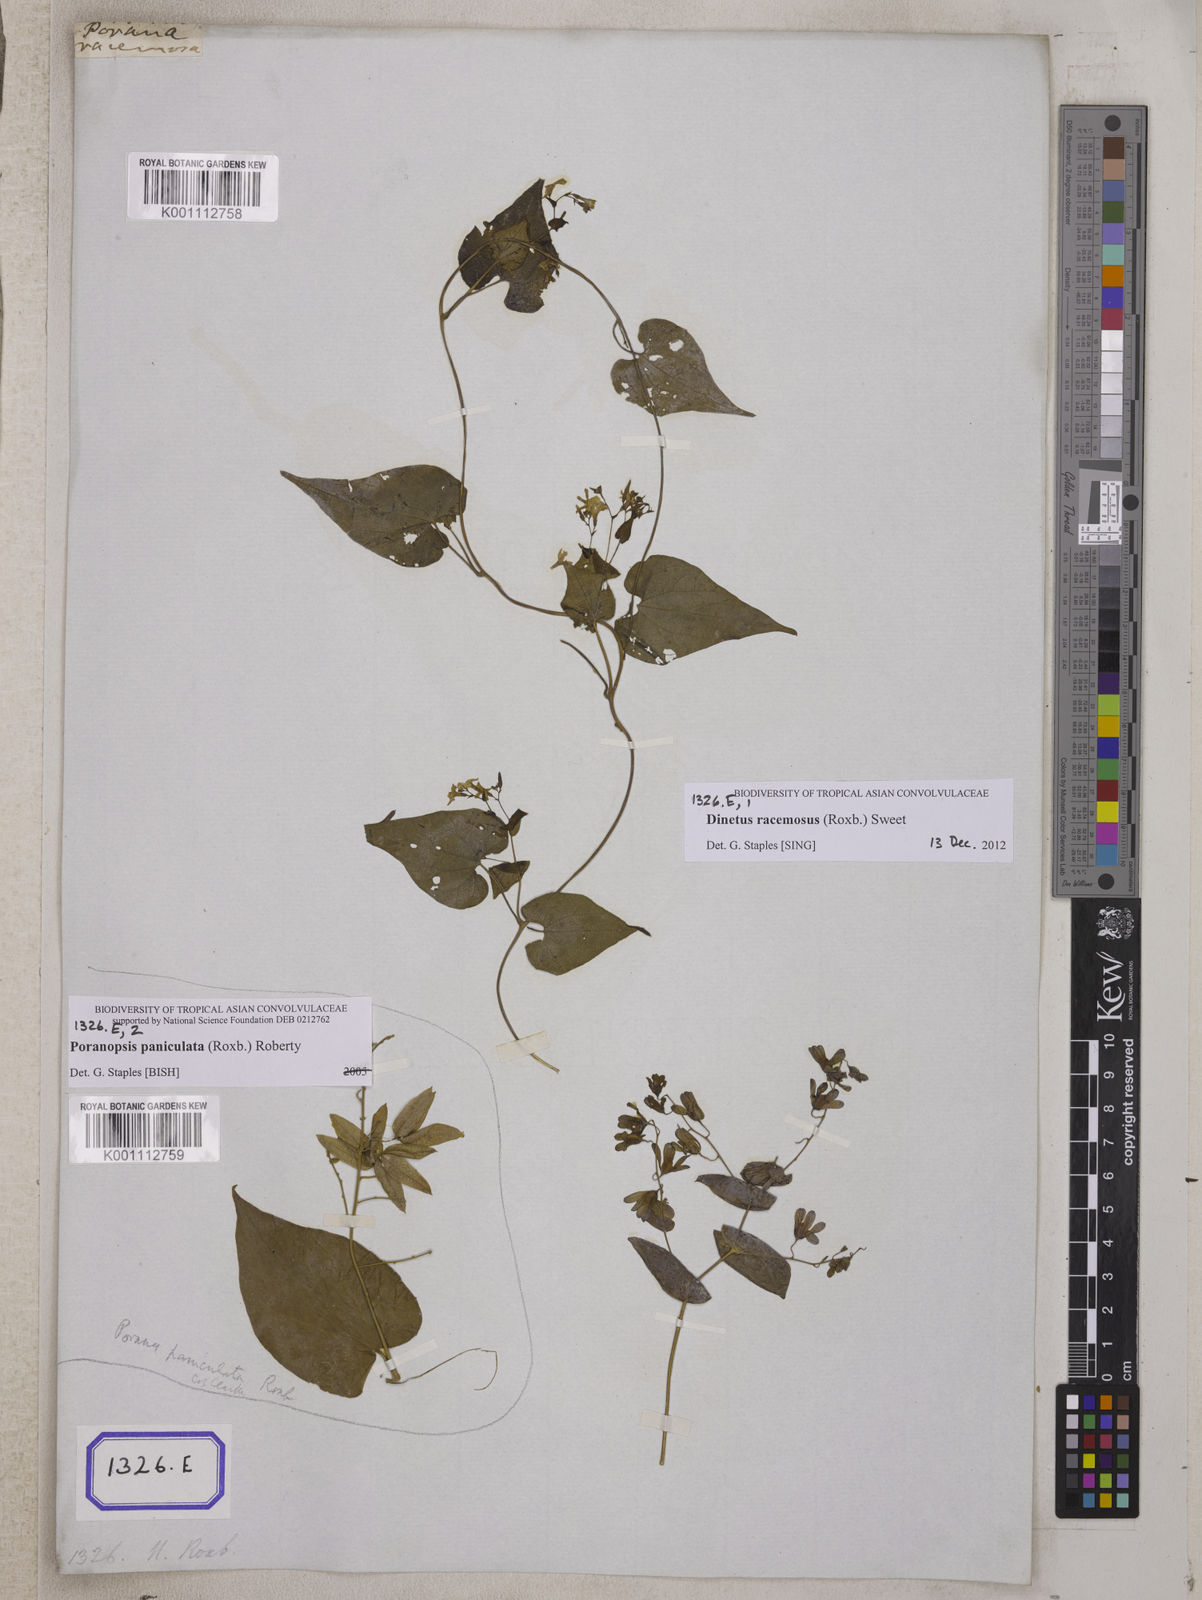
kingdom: Plantae
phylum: Tracheophyta
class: Magnoliopsida
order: Solanales
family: Convolvulaceae
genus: Porana
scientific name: Porana
